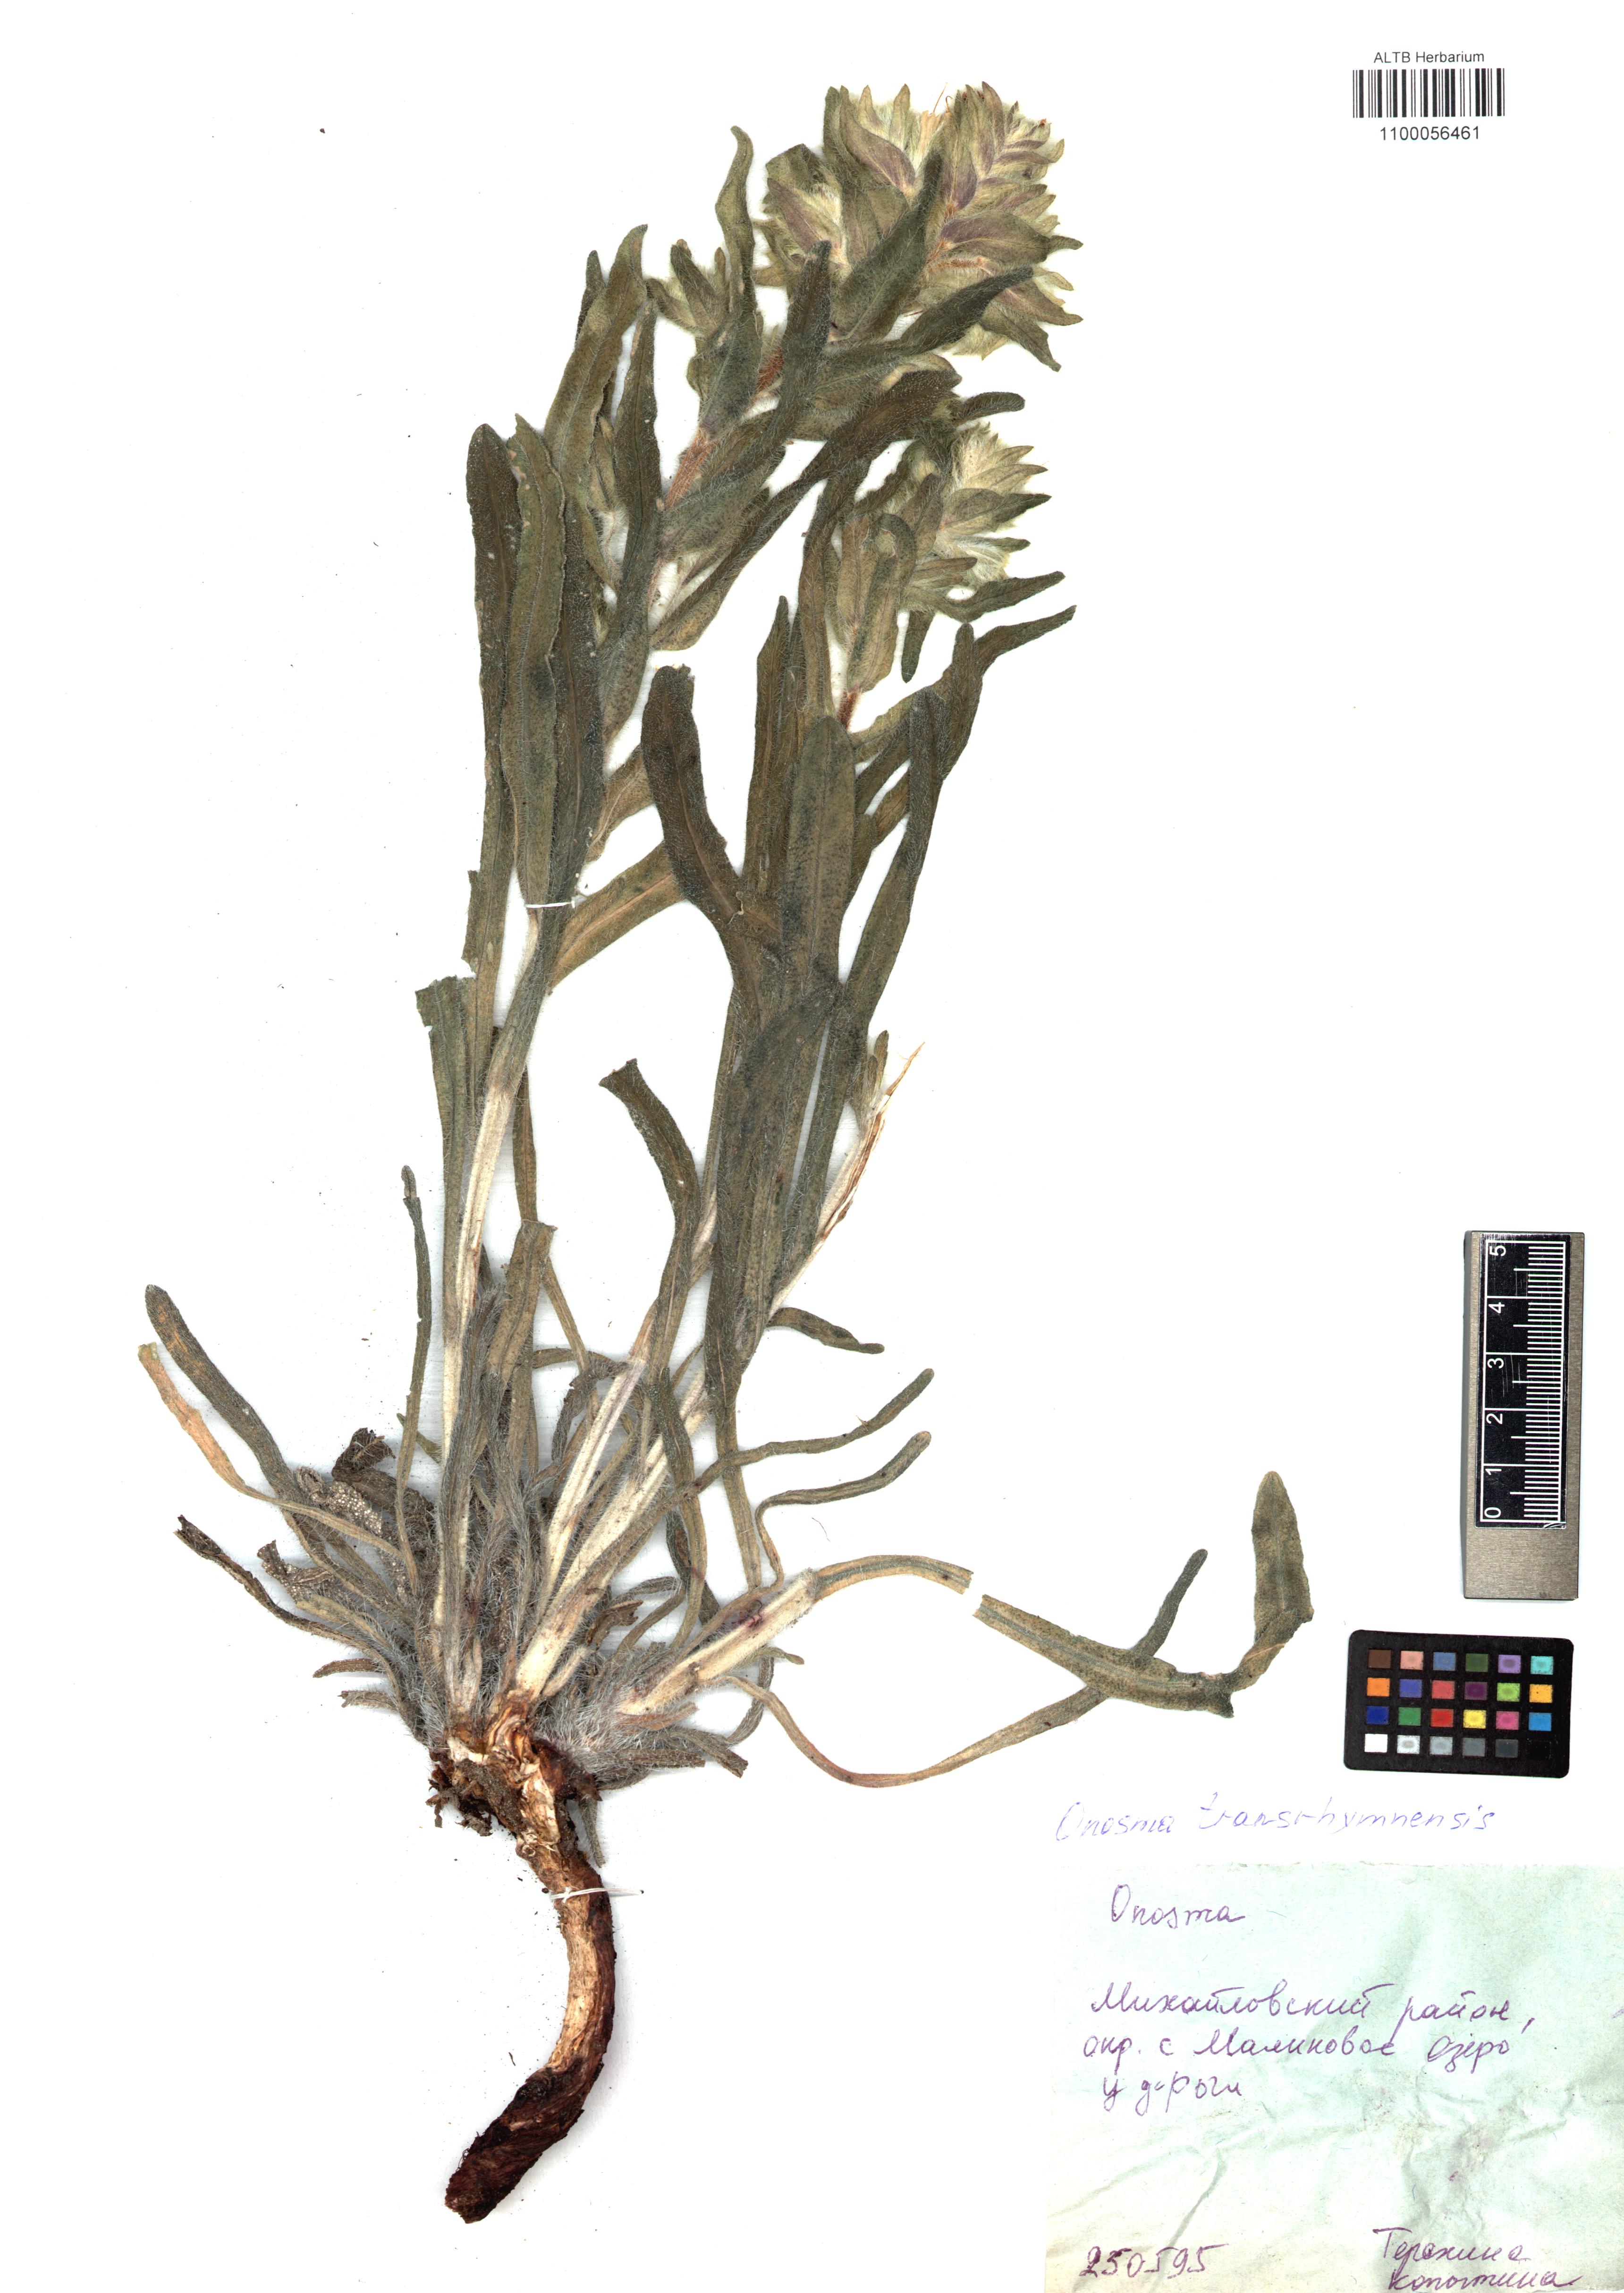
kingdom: Plantae
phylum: Tracheophyta
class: Magnoliopsida
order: Boraginales
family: Boraginaceae
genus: Onosma
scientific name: Onosma transrhymnensis
